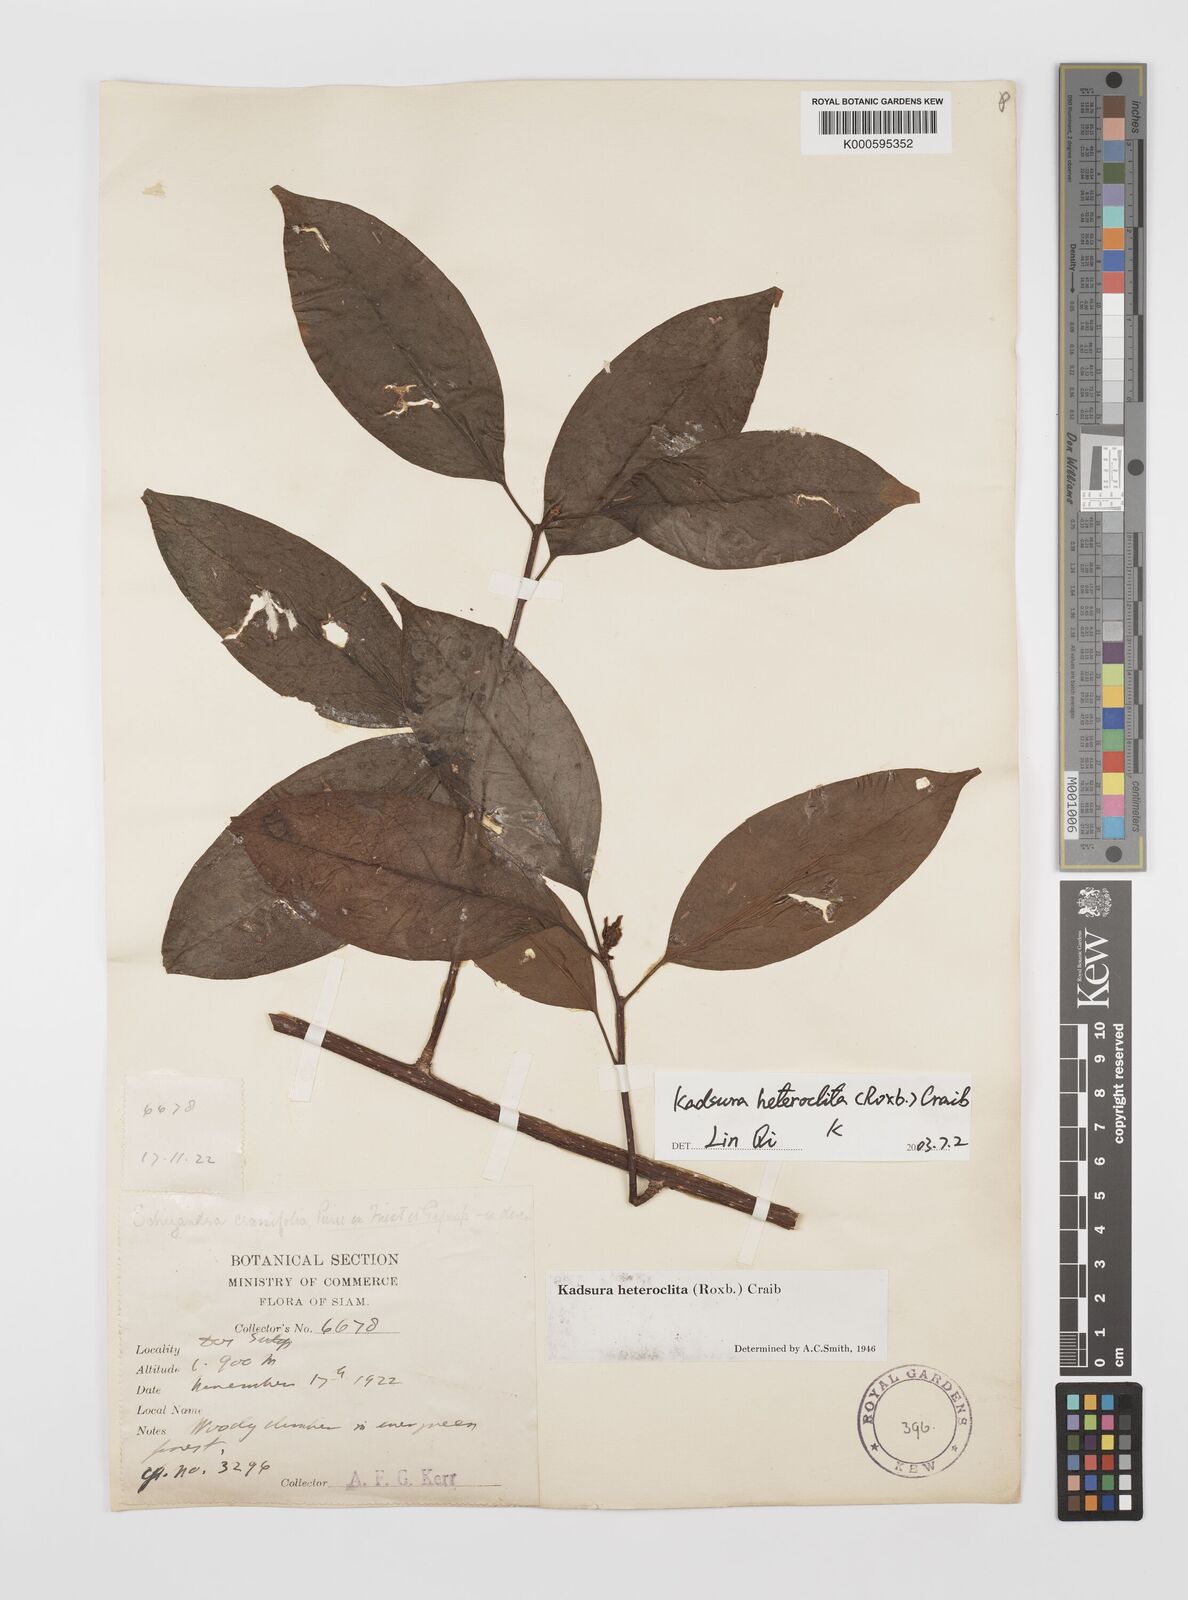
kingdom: Plantae
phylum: Tracheophyta
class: Magnoliopsida
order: Austrobaileyales
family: Schisandraceae
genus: Kadsura
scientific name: Kadsura heteroclita
